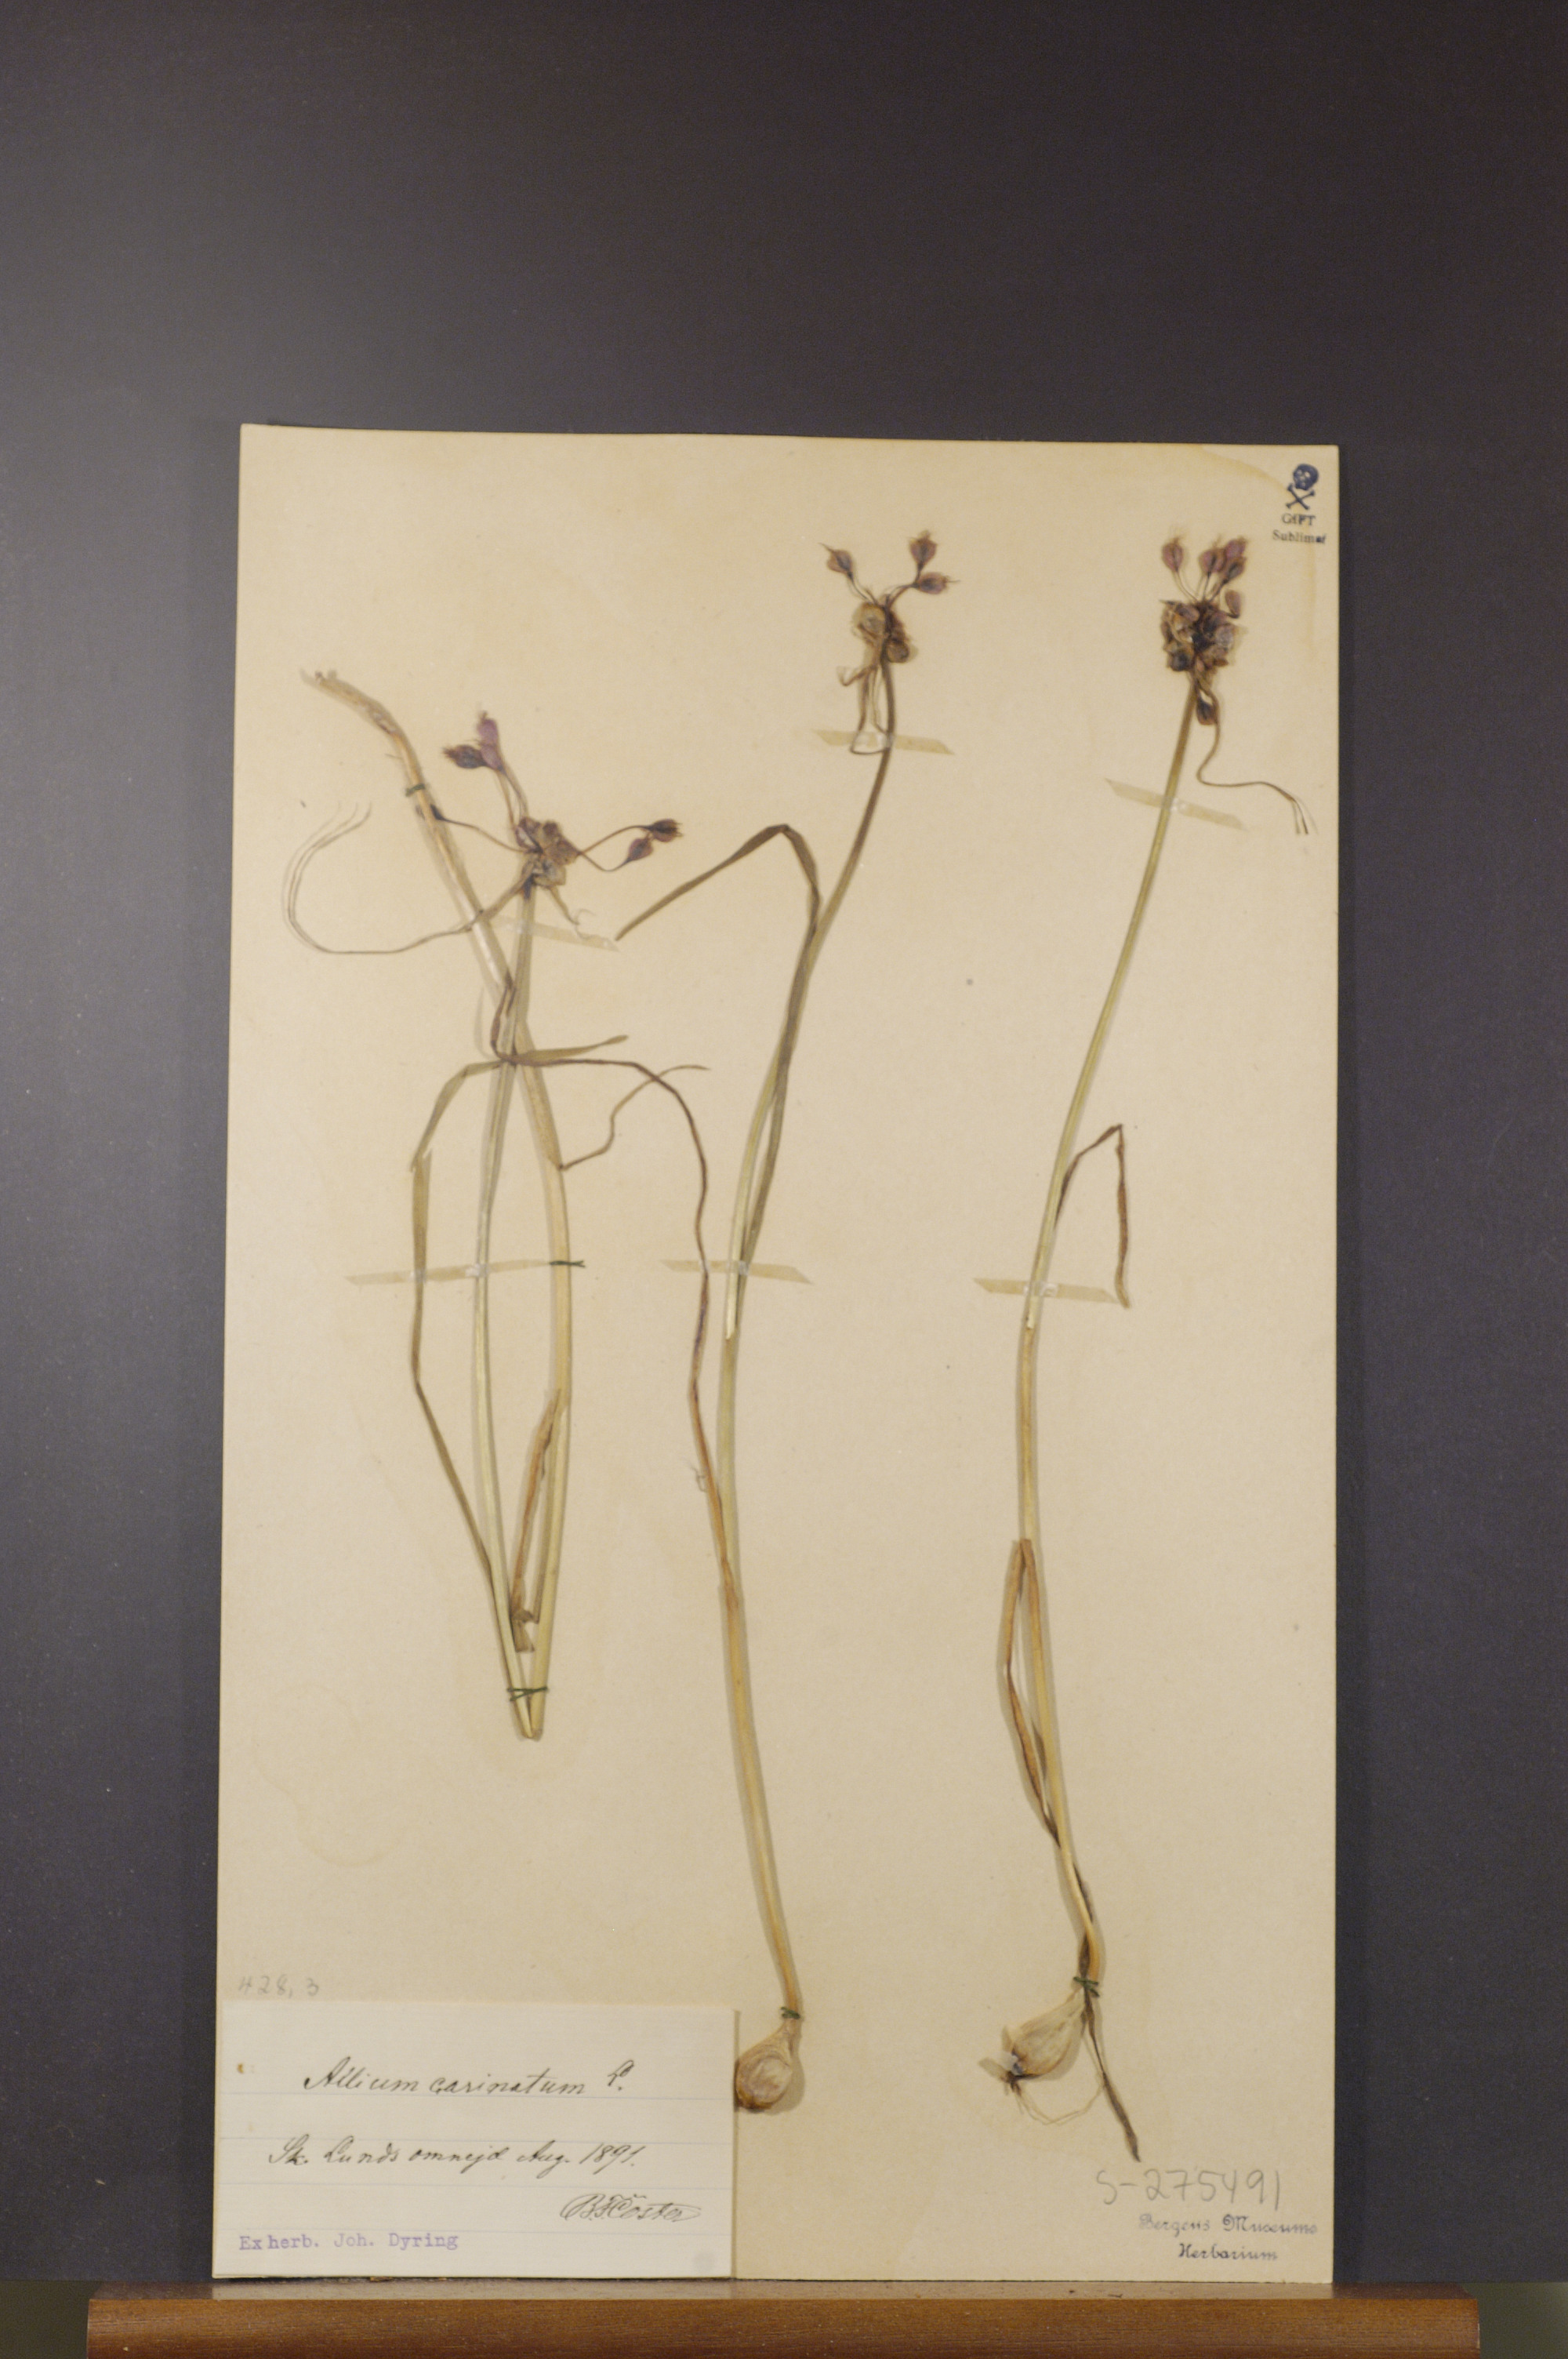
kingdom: Plantae
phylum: Tracheophyta
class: Liliopsida
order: Asparagales
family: Amaryllidaceae
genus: Allium
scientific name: Allium carinatum
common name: Keeled garlic
